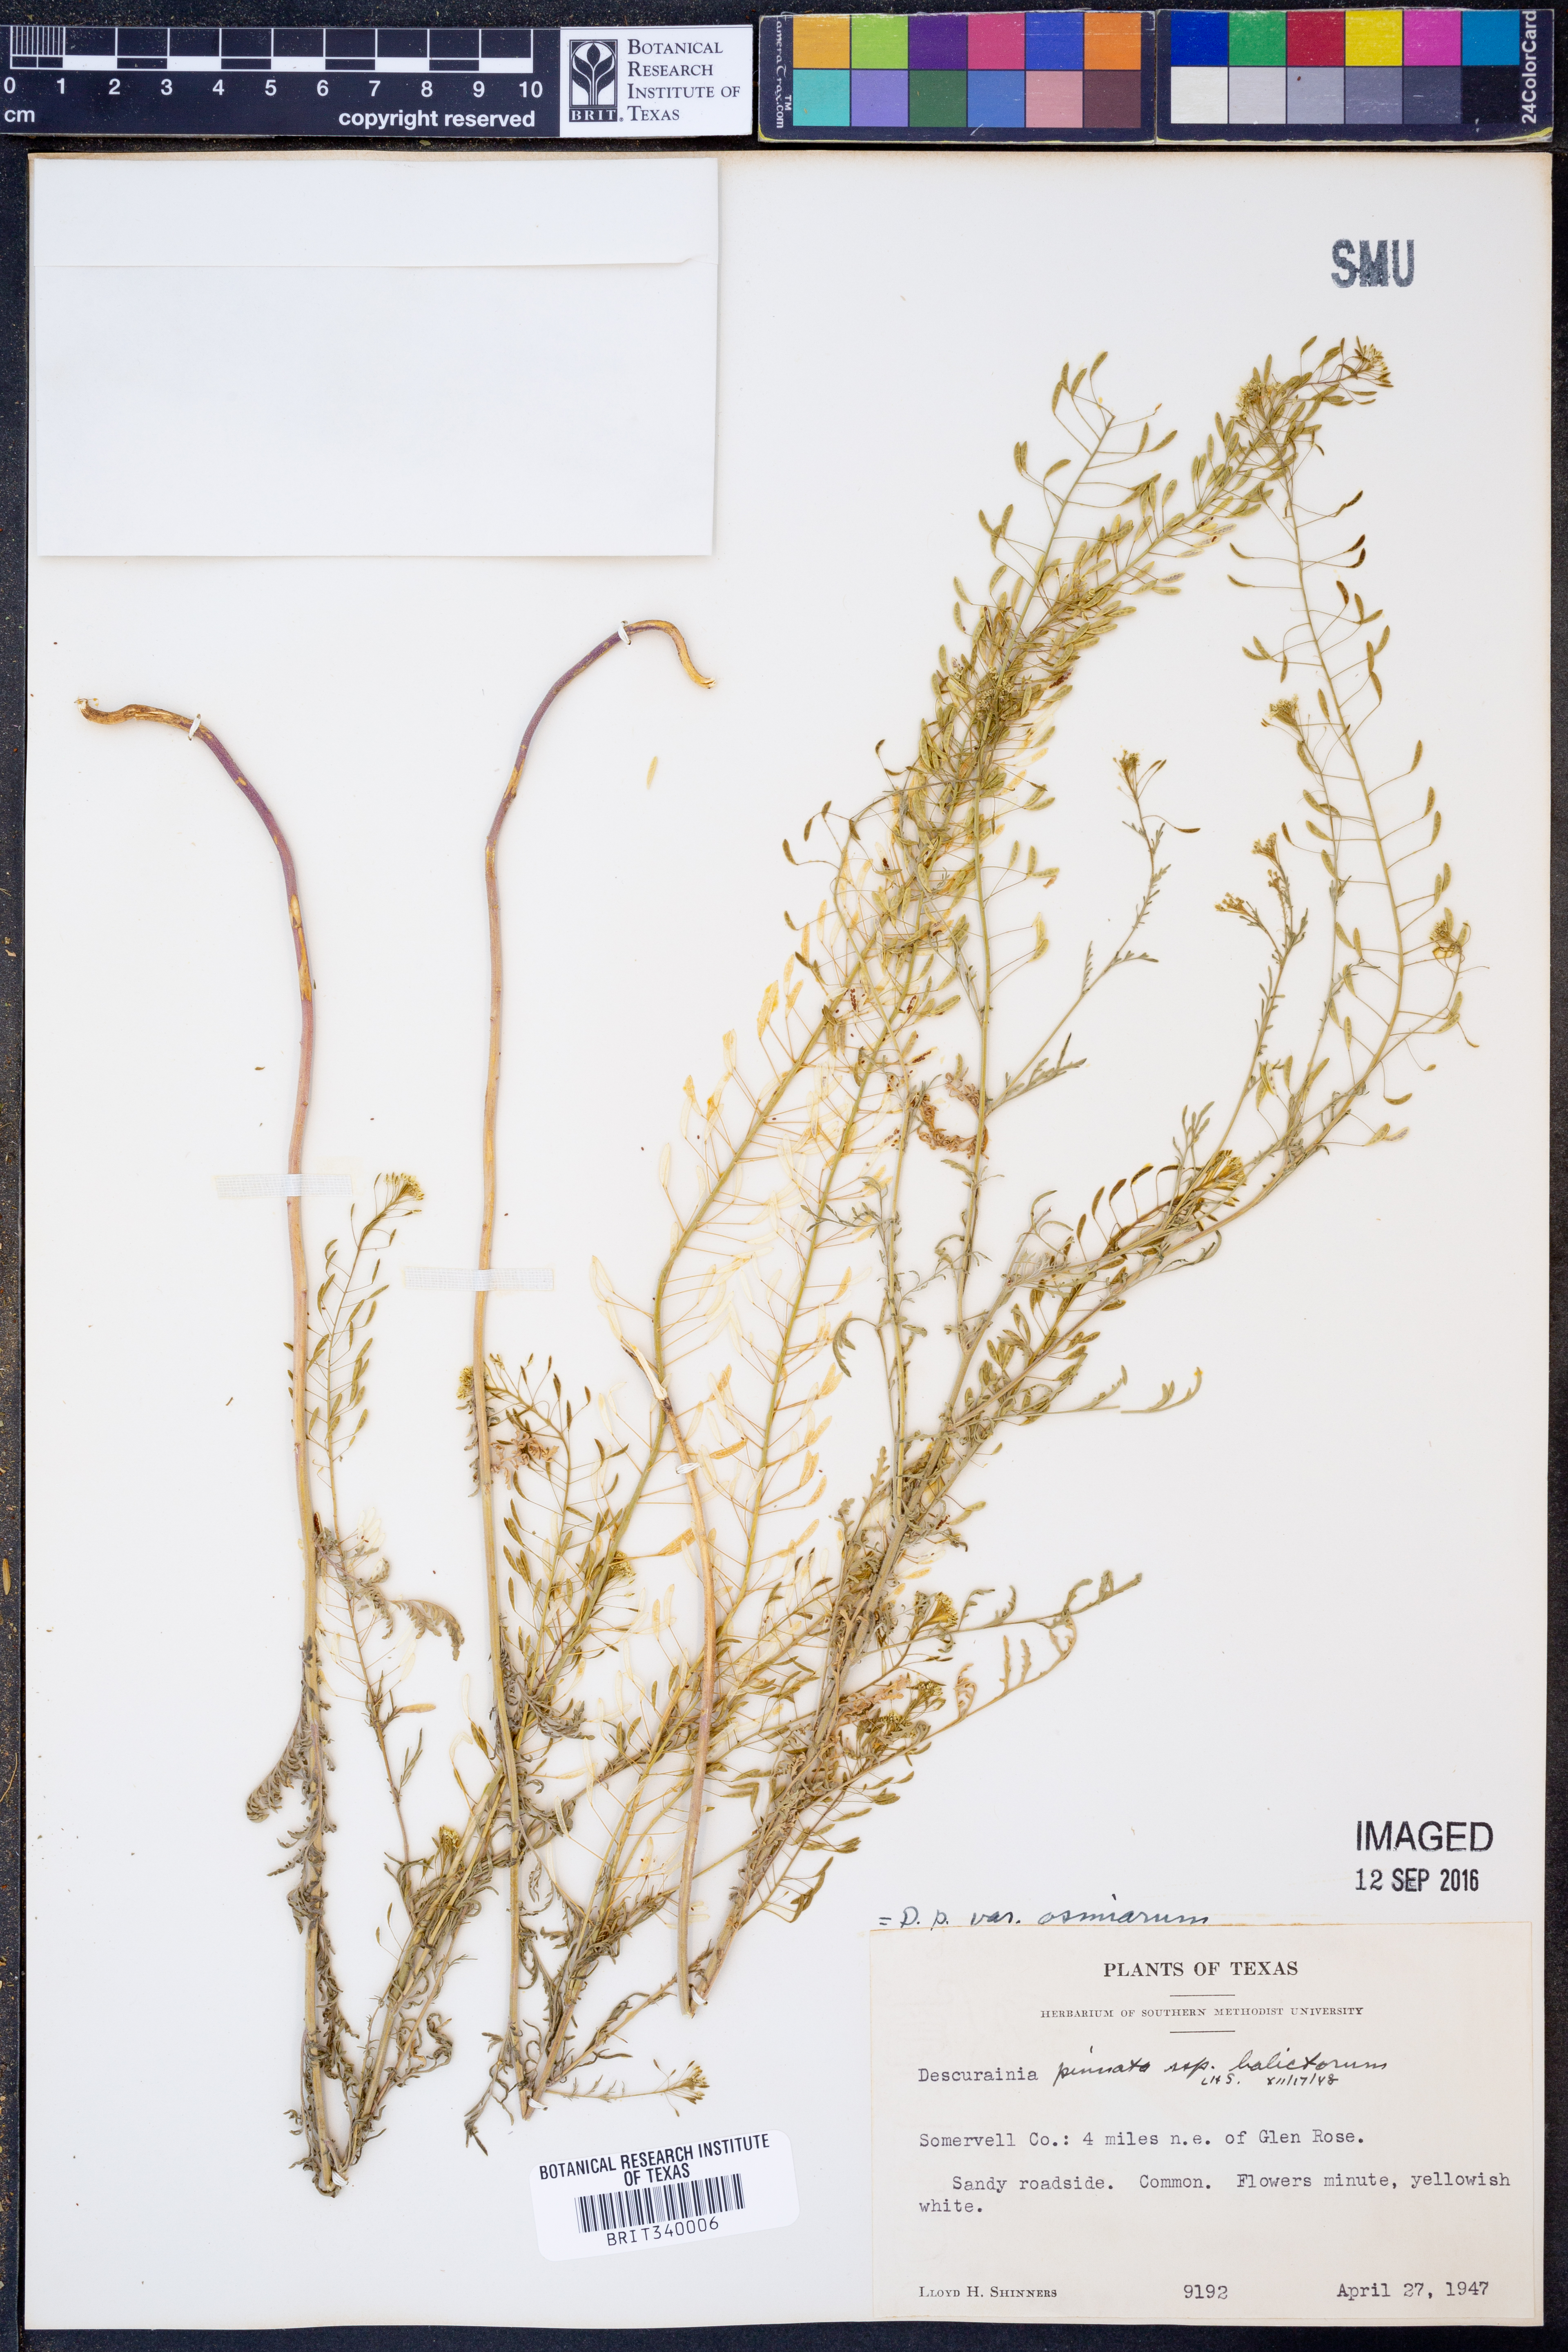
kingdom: Plantae
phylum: Tracheophyta
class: Magnoliopsida
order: Brassicales
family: Brassicaceae
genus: Descurainia
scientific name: Descurainia pinnata
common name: Western tansy mustard
